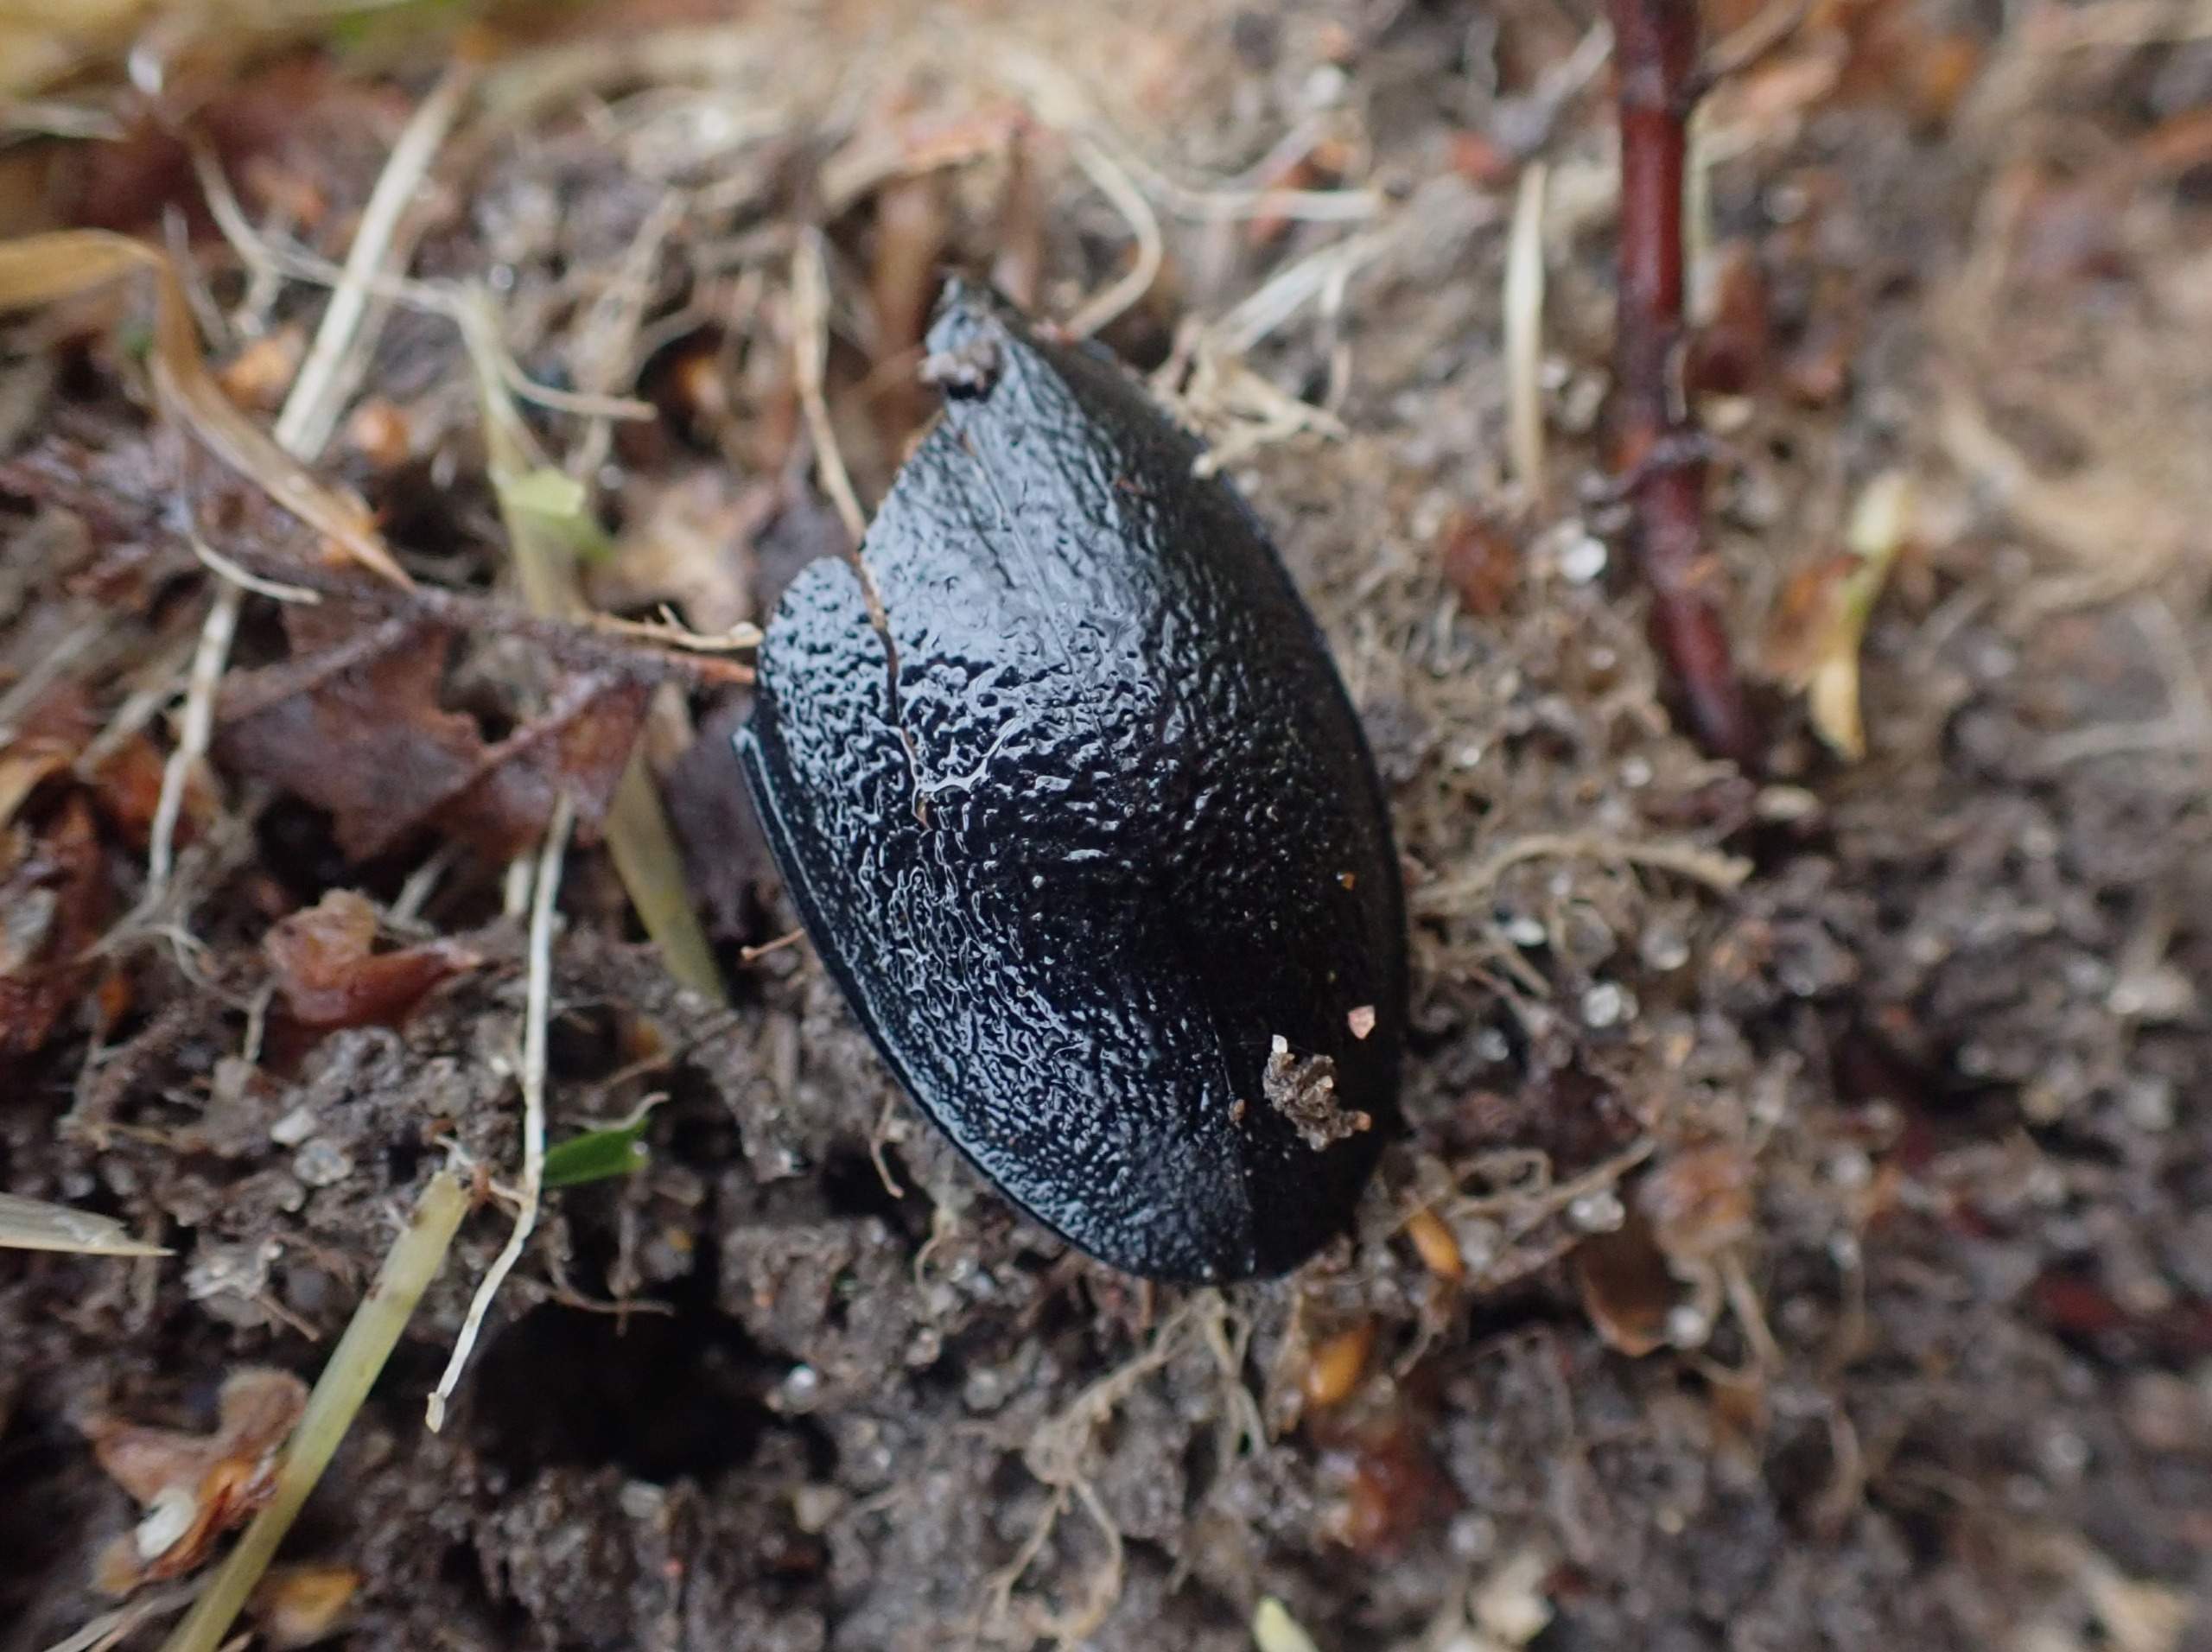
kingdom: Animalia
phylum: Arthropoda
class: Insecta
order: Coleoptera
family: Carabidae
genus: Carabus
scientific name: Carabus coriaceus
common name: Læderløber
